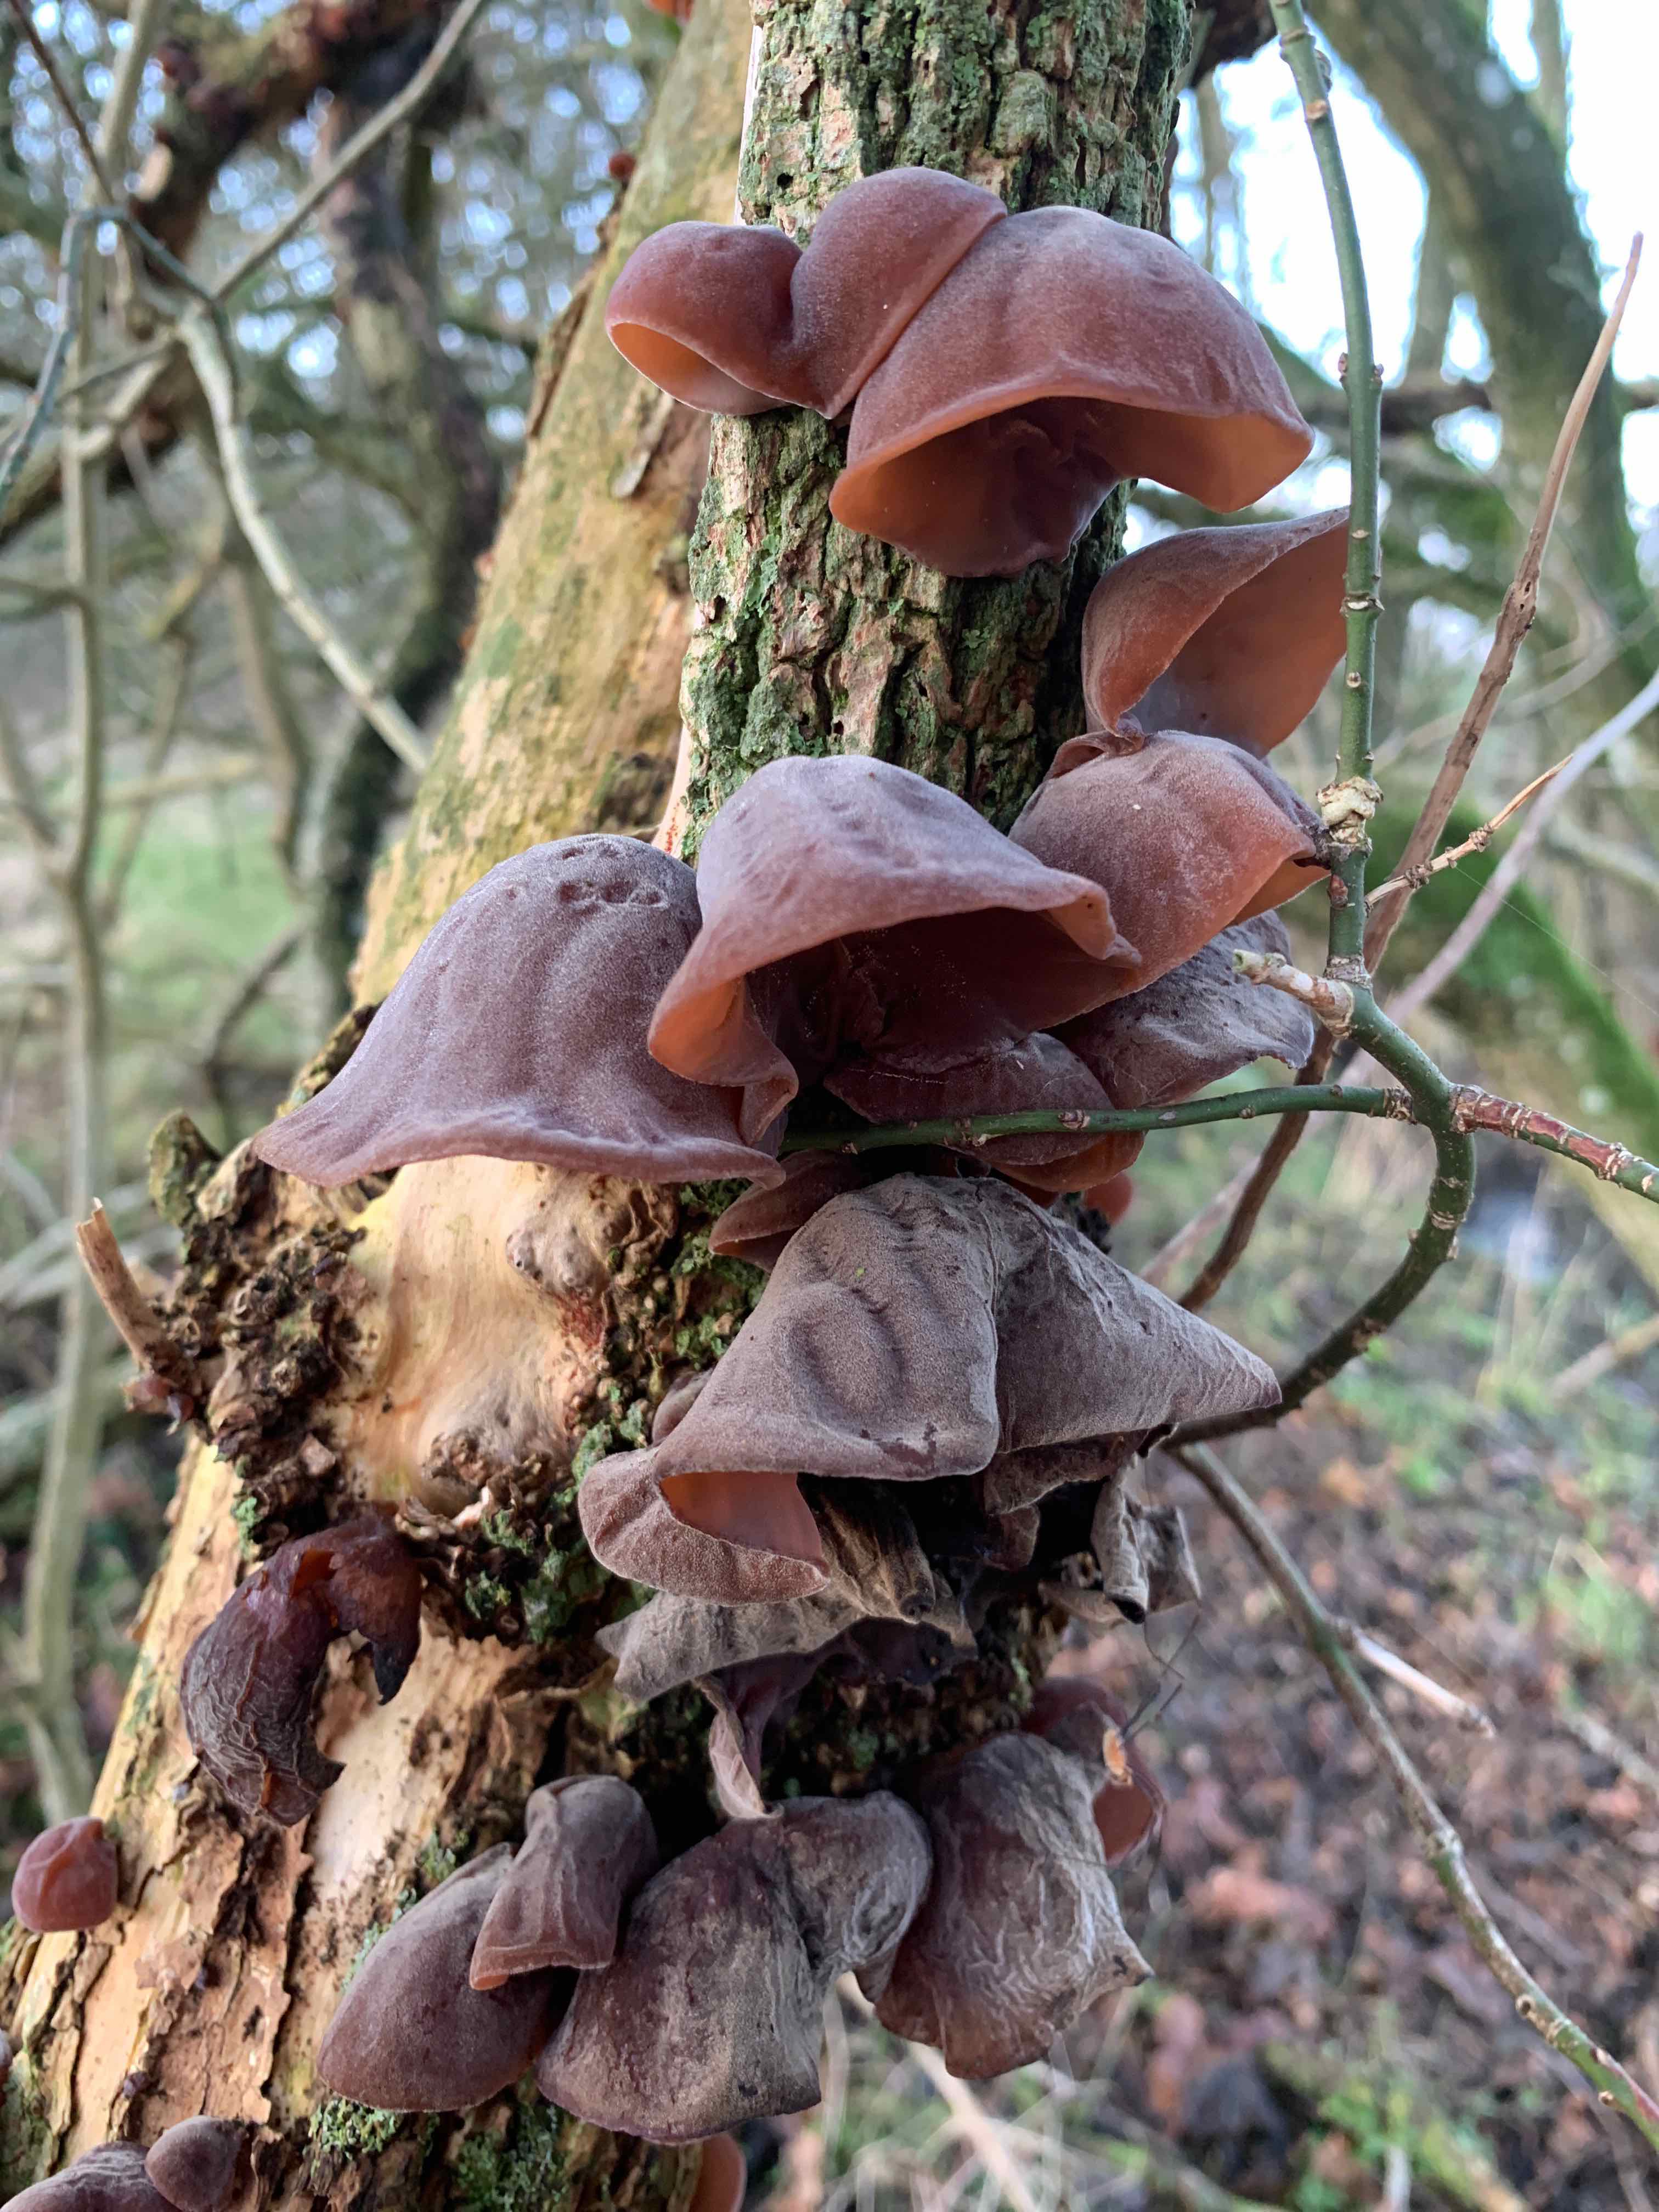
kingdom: Fungi
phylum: Basidiomycota
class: Agaricomycetes
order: Auriculariales
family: Auriculariaceae
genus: Auricularia
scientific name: Auricularia auricula-judae
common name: almindelig judasøre
